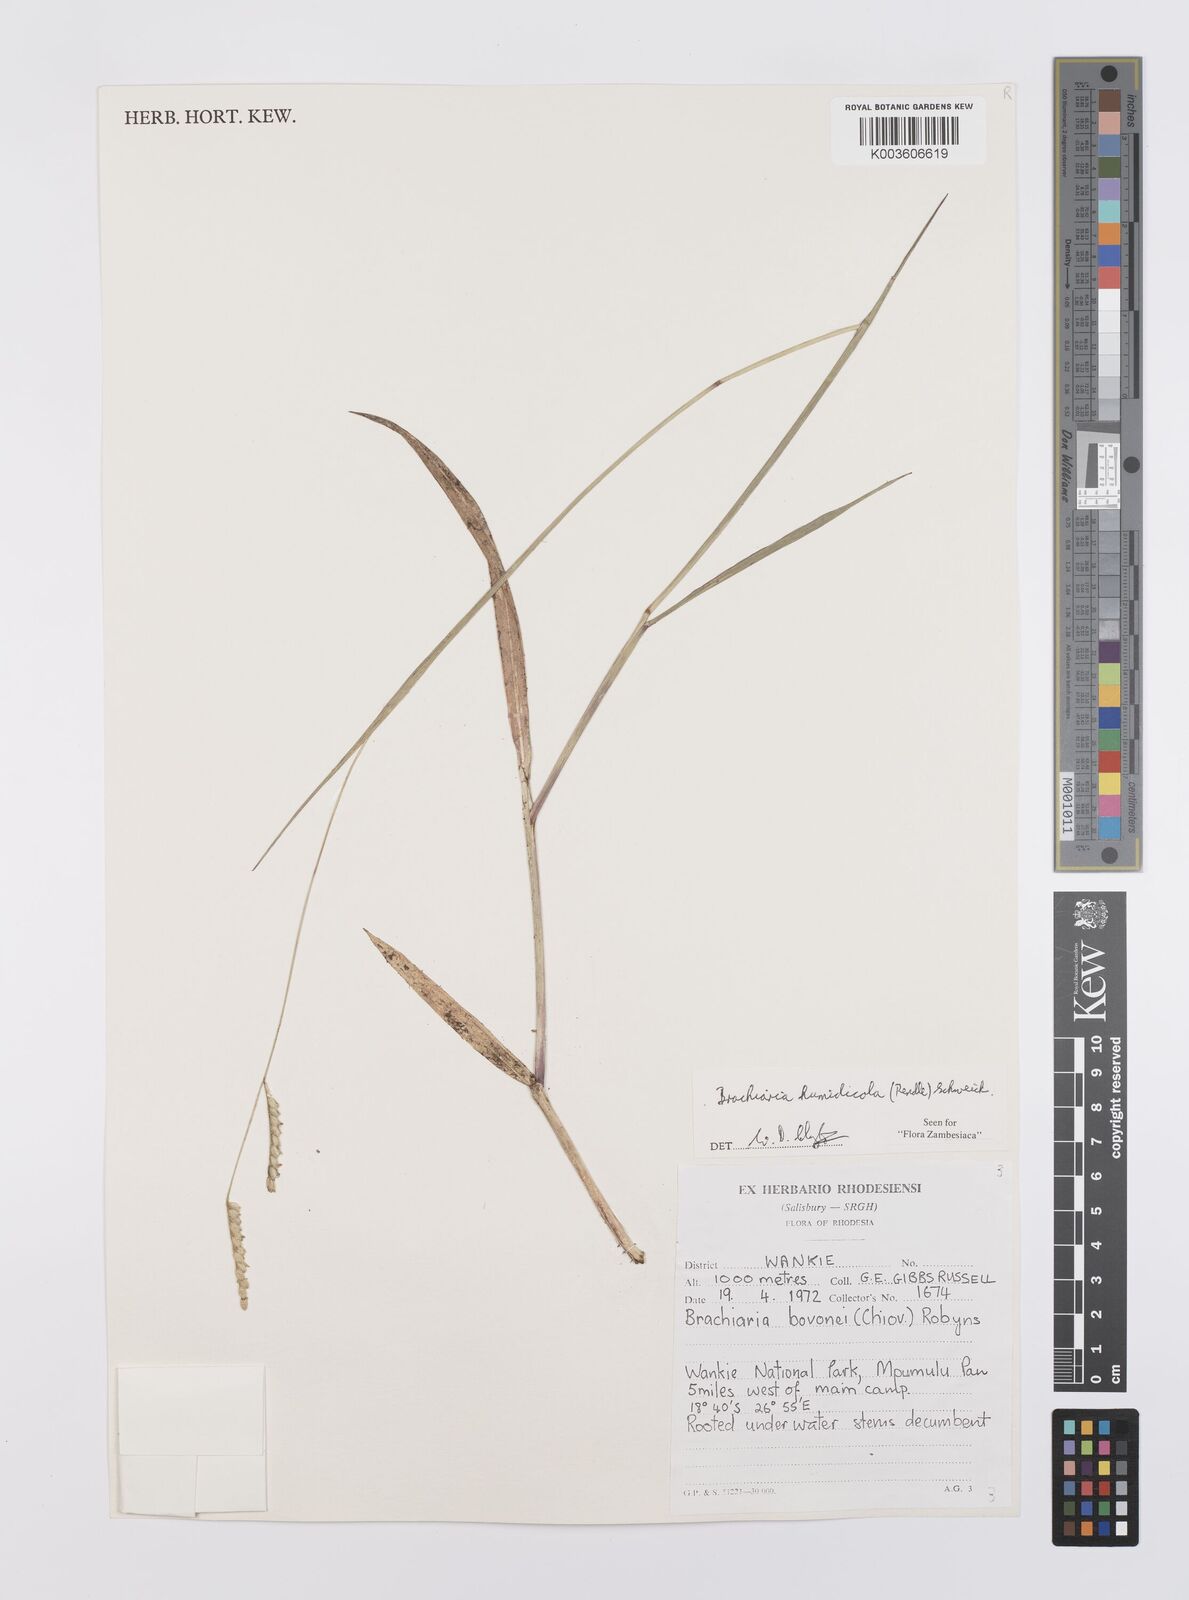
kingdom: Plantae
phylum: Tracheophyta
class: Liliopsida
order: Poales
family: Poaceae
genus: Urochloa
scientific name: Urochloa dictyoneura
